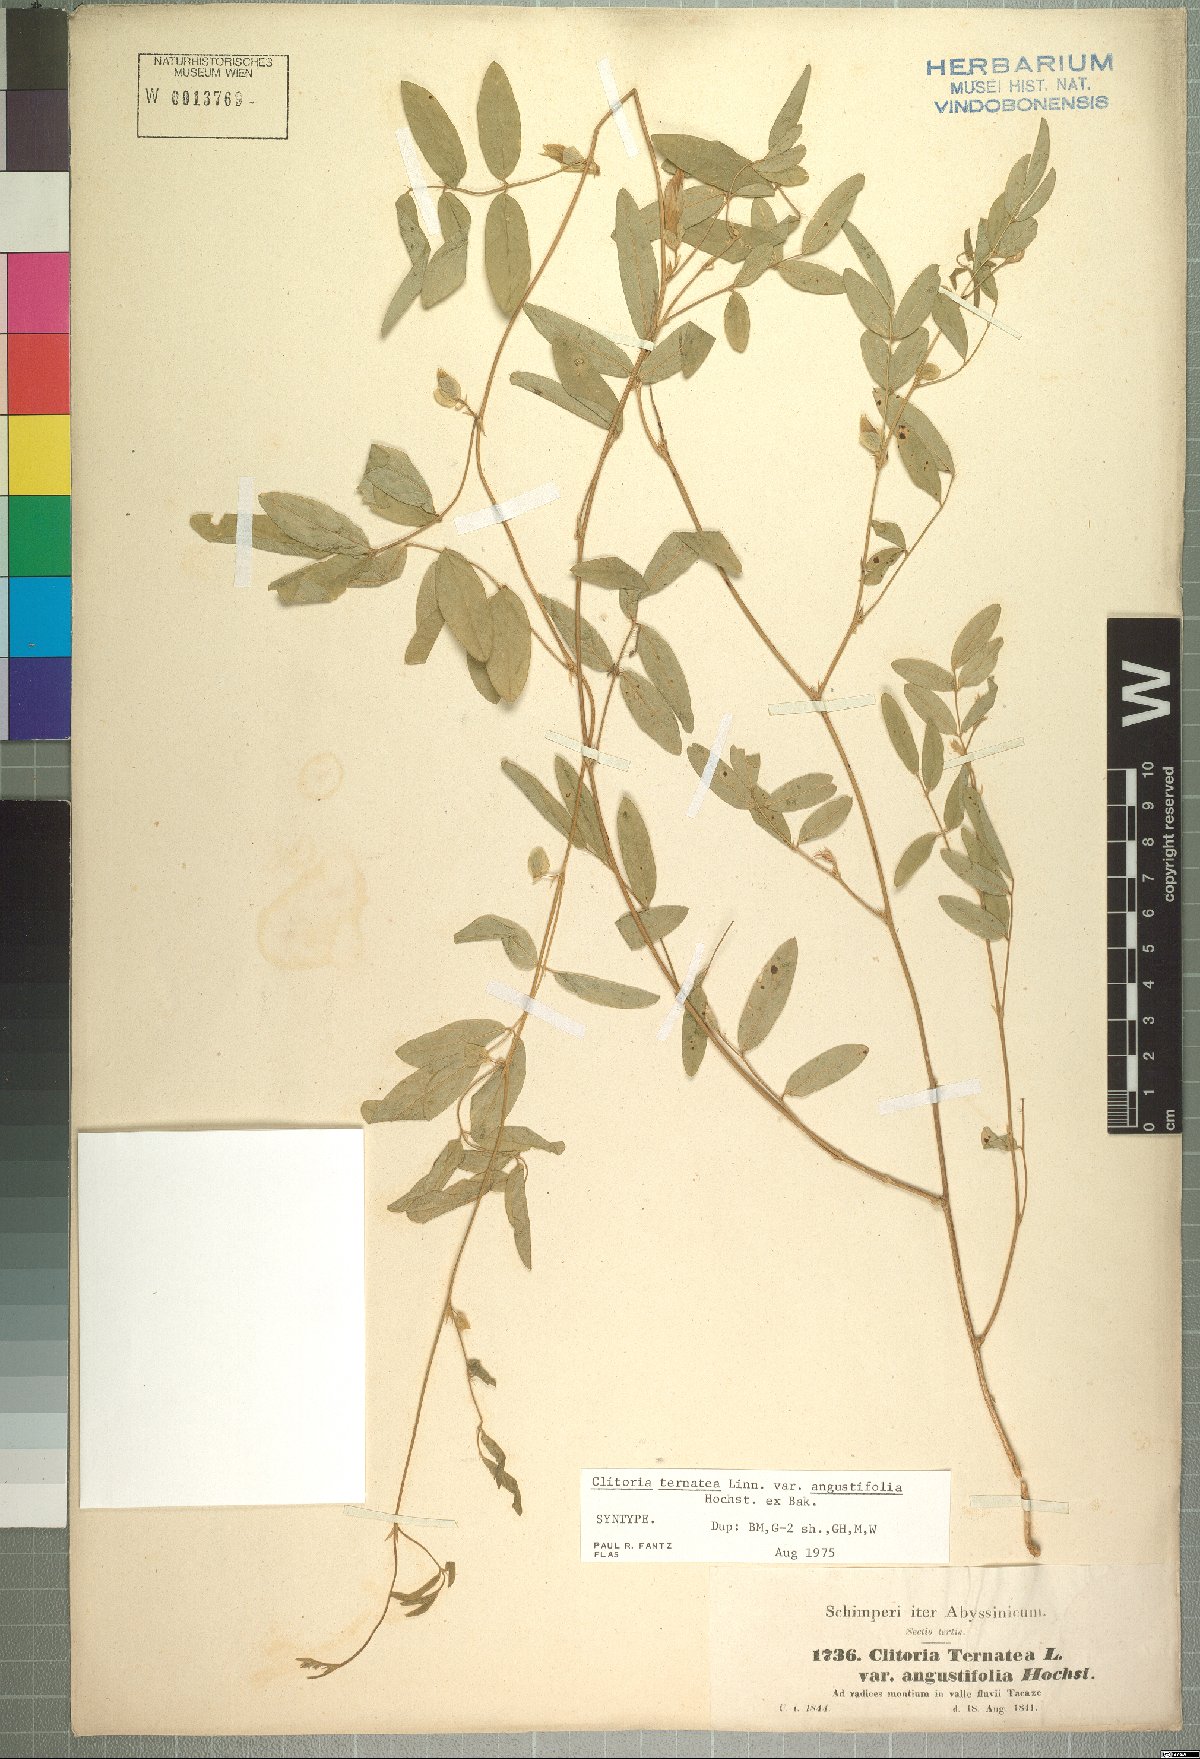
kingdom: Plantae
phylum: Tracheophyta
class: Magnoliopsida
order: Fabales
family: Fabaceae
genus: Clitoria
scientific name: Clitoria ternatea
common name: Asian pigeonwings
